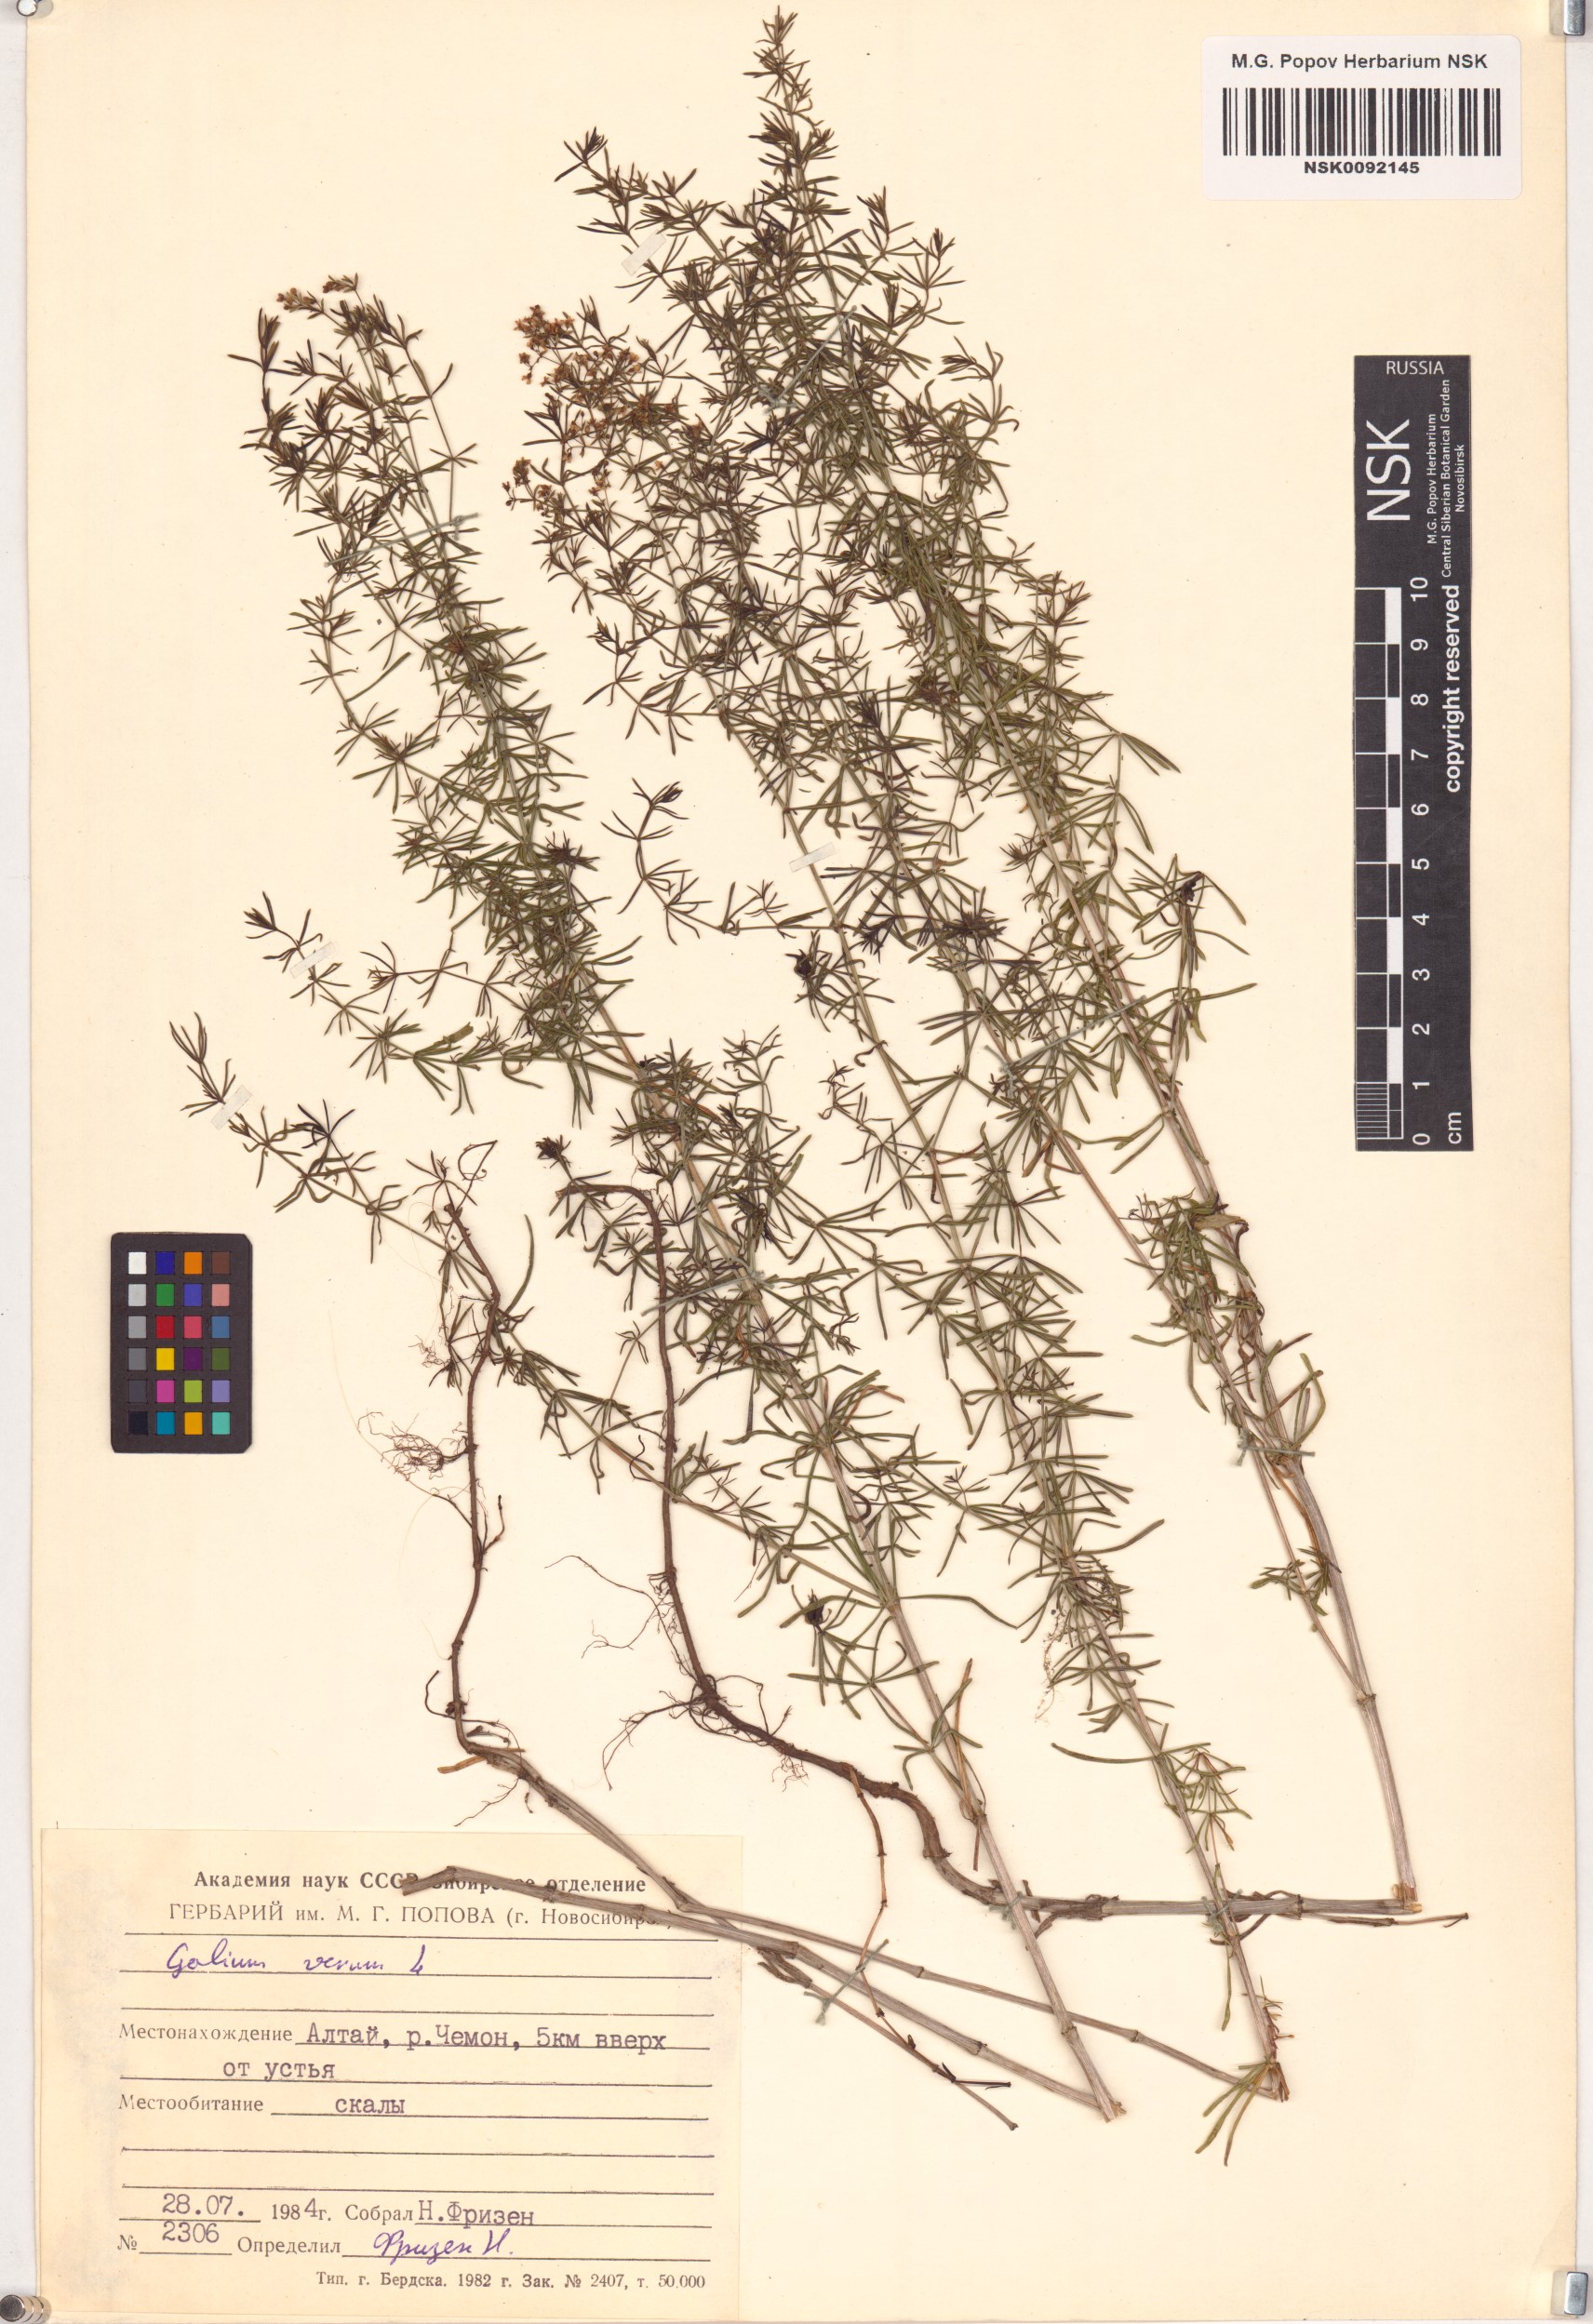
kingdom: Plantae
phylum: Tracheophyta
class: Magnoliopsida
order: Gentianales
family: Rubiaceae
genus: Galium
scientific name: Galium verum
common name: Lady's bedstraw
